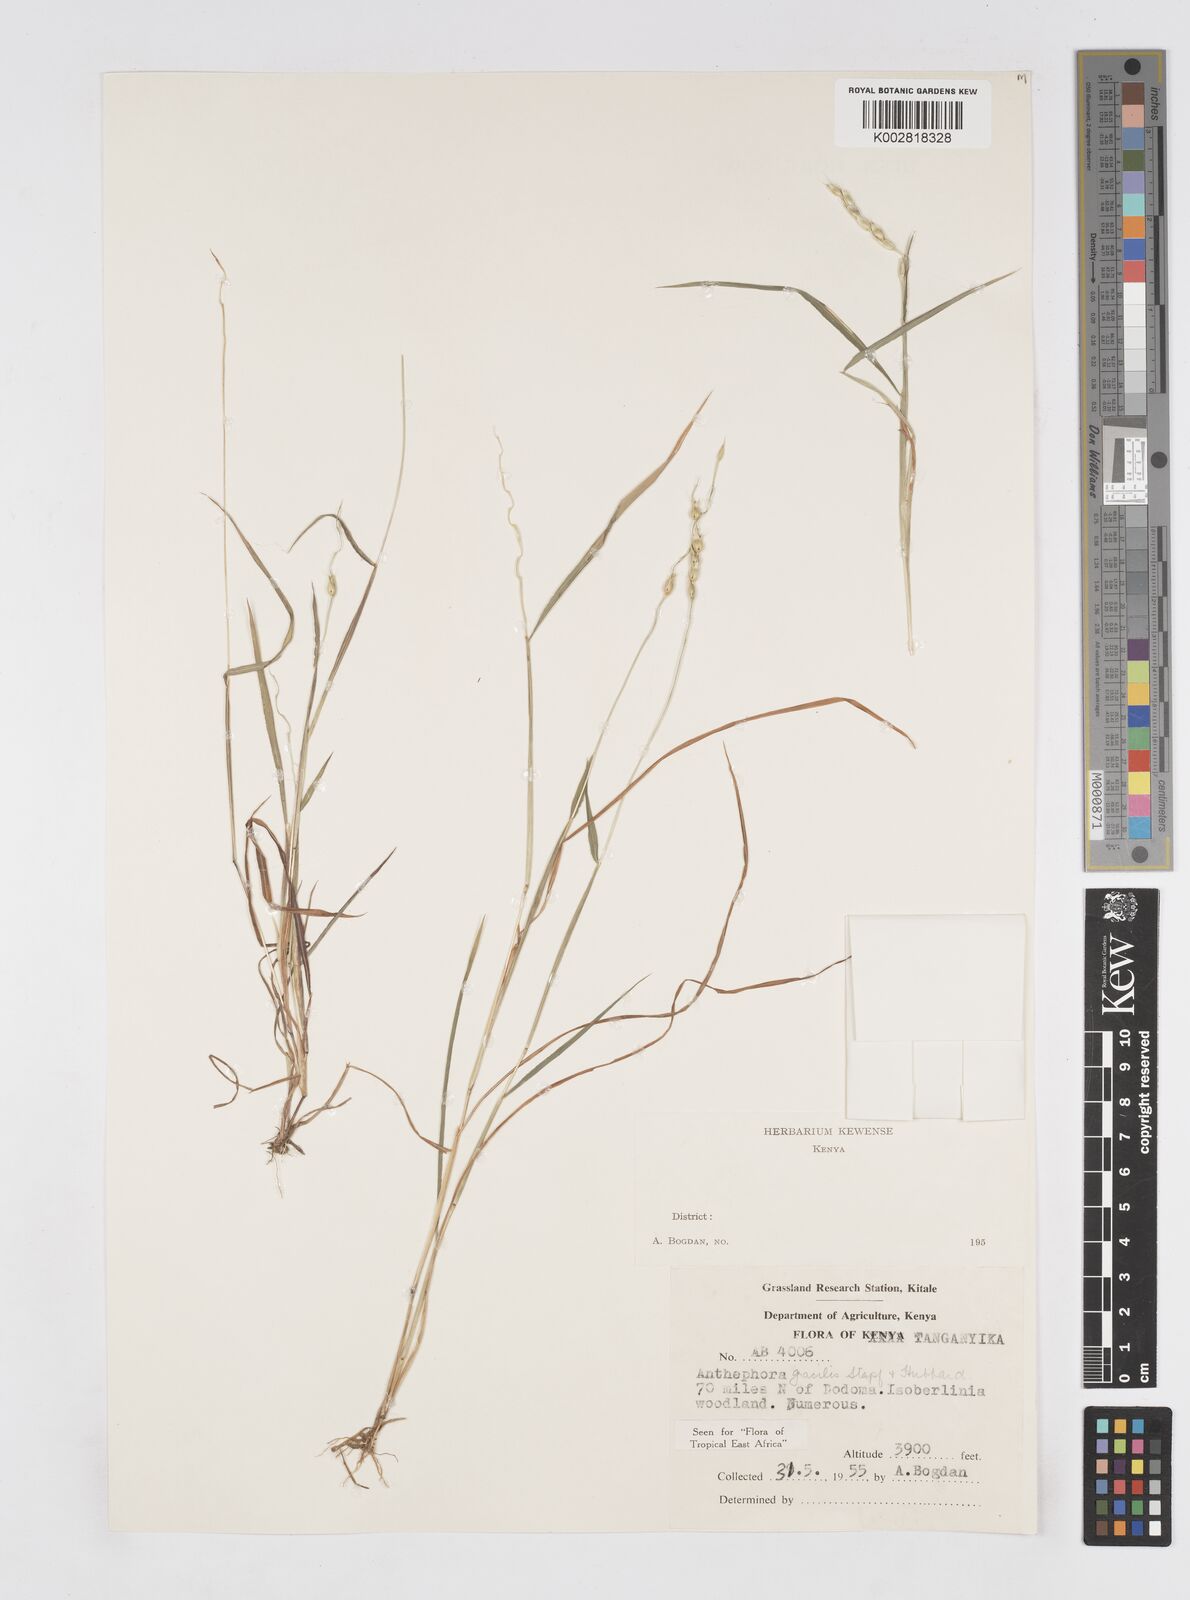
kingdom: Plantae
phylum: Tracheophyta
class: Liliopsida
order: Poales
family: Poaceae
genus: Anthephora
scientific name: Anthephora truncata
